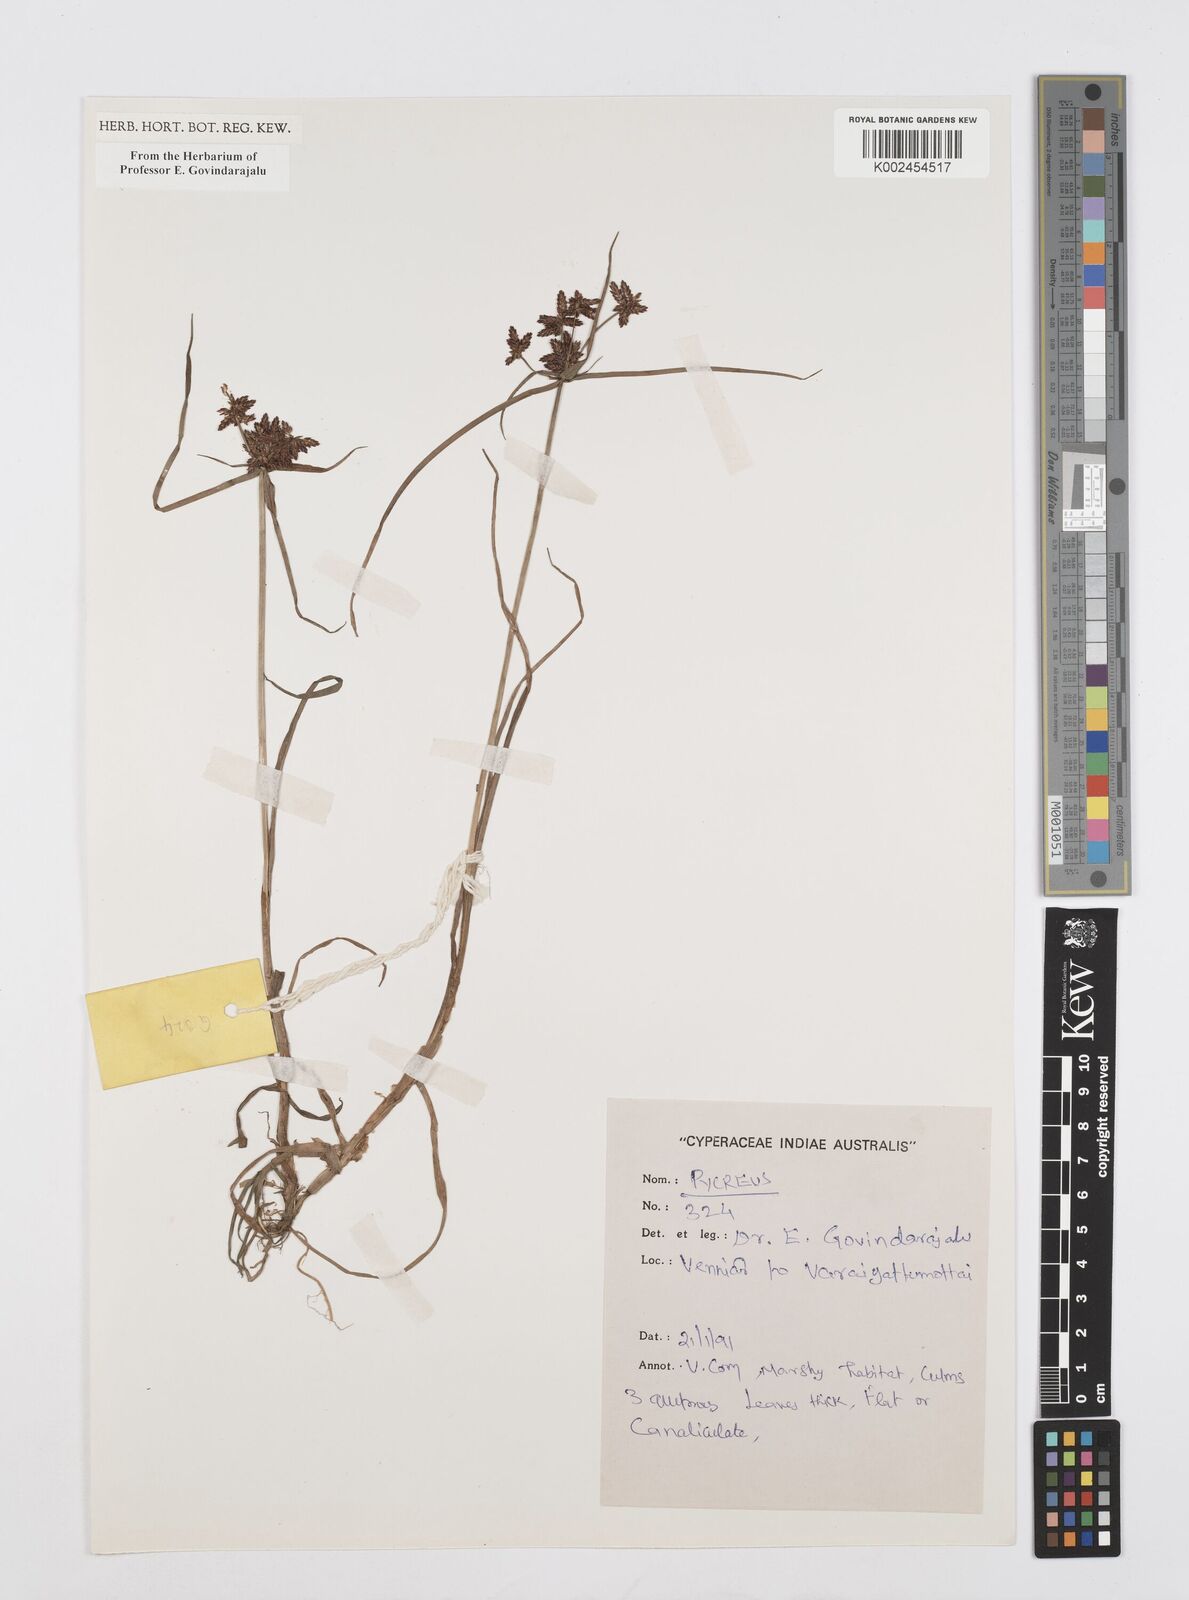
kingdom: Plantae
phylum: Tracheophyta
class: Liliopsida
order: Poales
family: Cyperaceae
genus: Cyperus
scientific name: Cyperus
